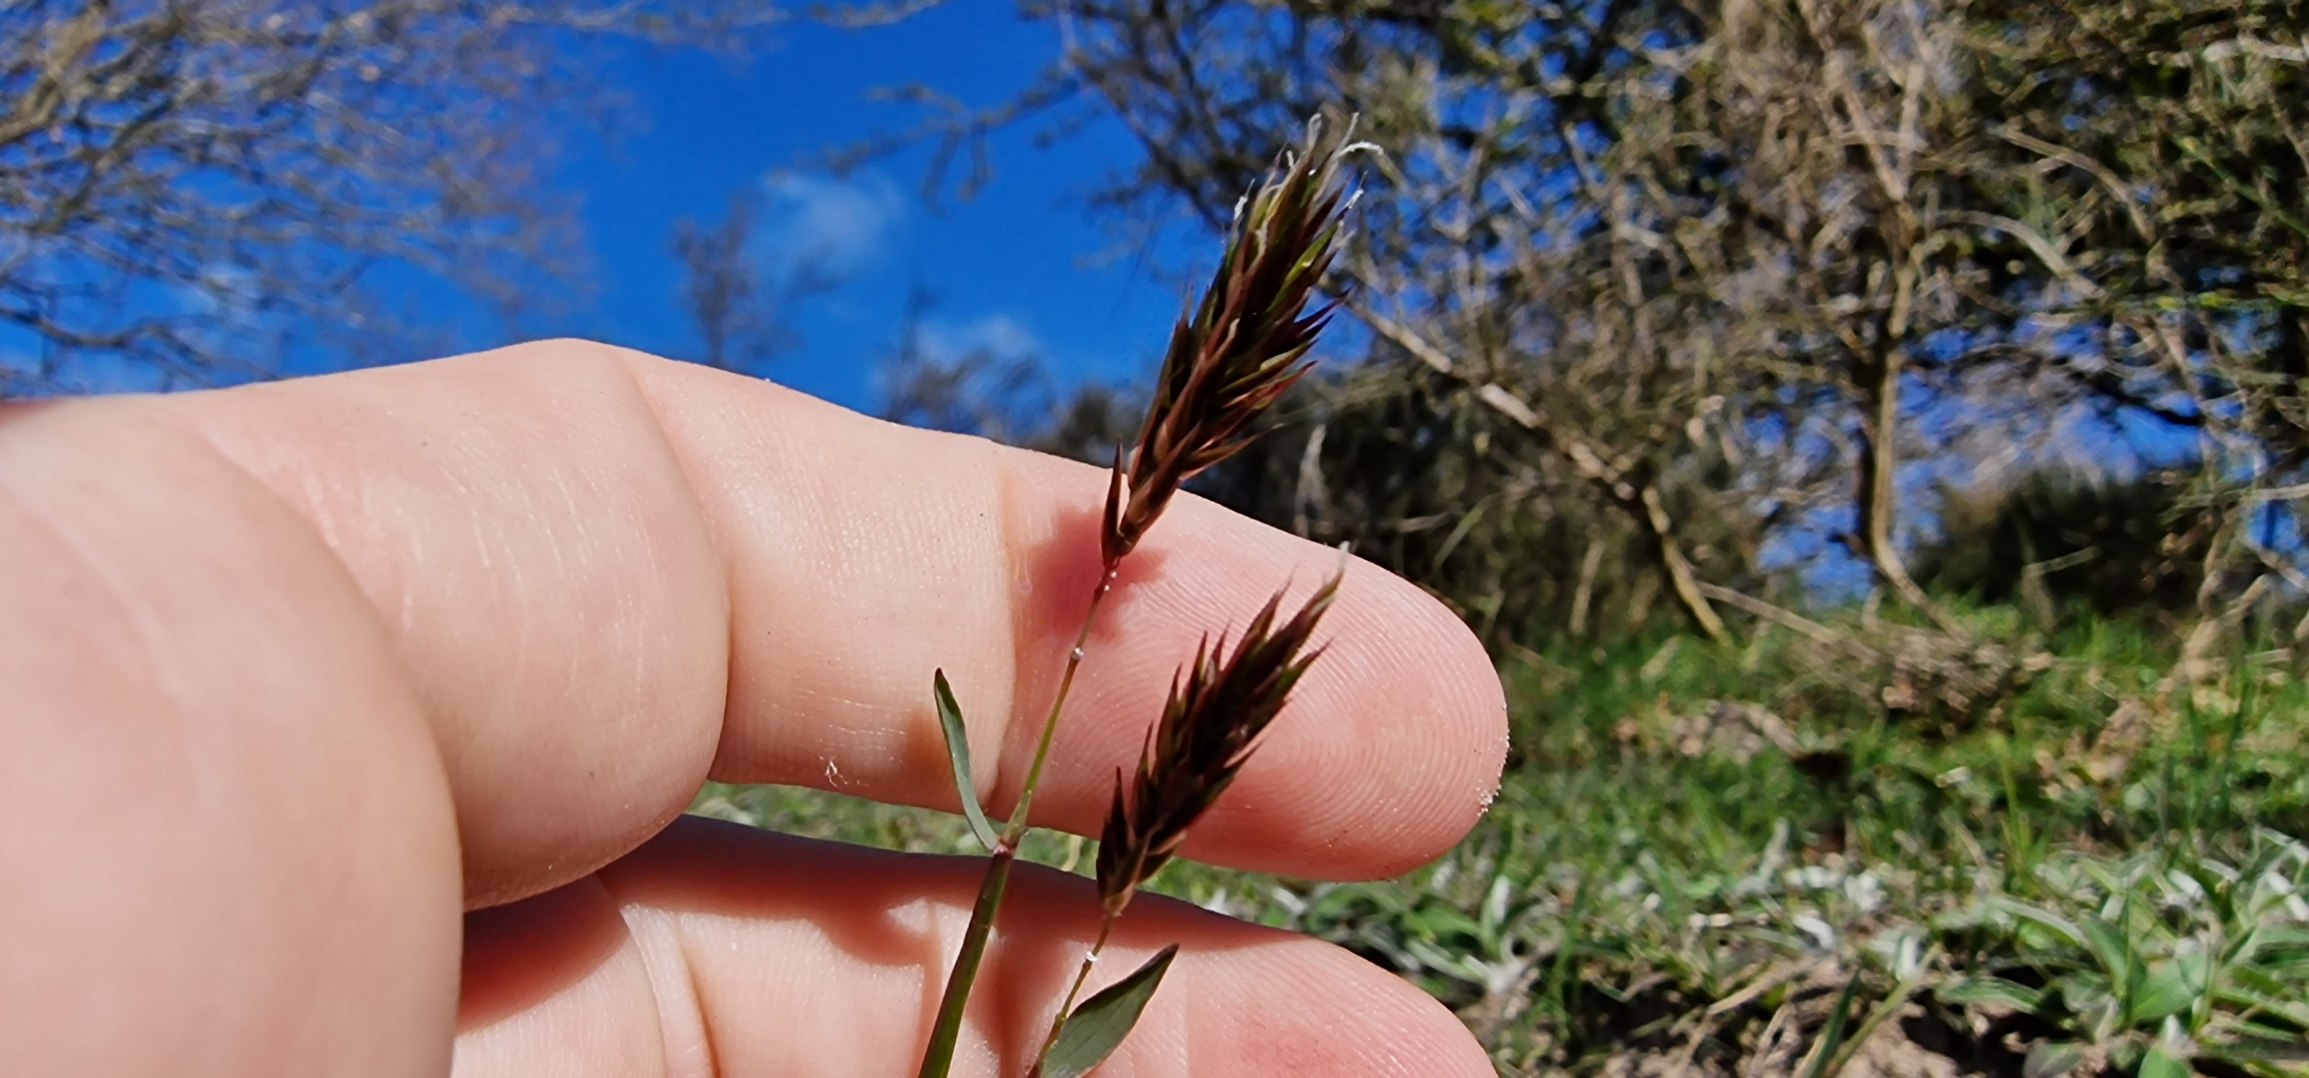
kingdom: Plantae
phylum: Tracheophyta
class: Liliopsida
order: Poales
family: Poaceae
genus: Anthoxanthum
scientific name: Anthoxanthum odoratum
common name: Vellugtende gulaks
